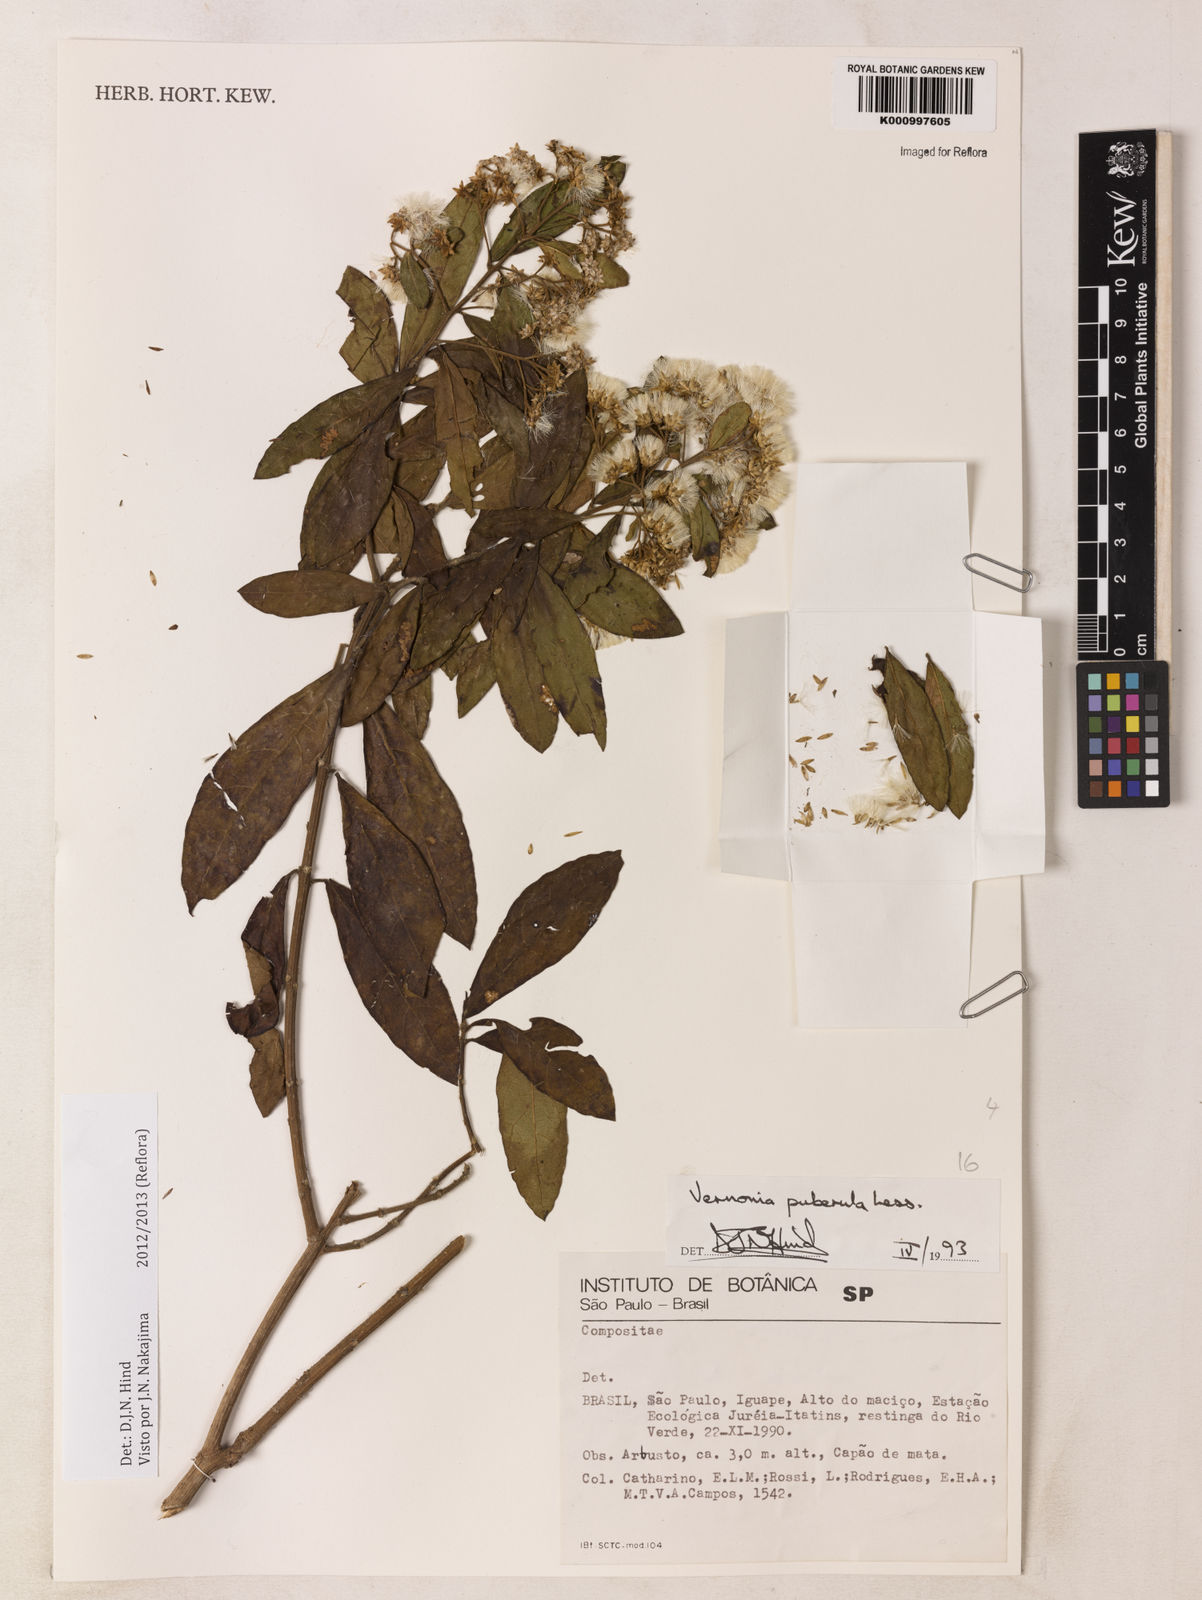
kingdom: Plantae
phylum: Tracheophyta
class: Magnoliopsida
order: Asterales
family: Asteraceae
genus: Vernonanthura
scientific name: Vernonanthura puberula
